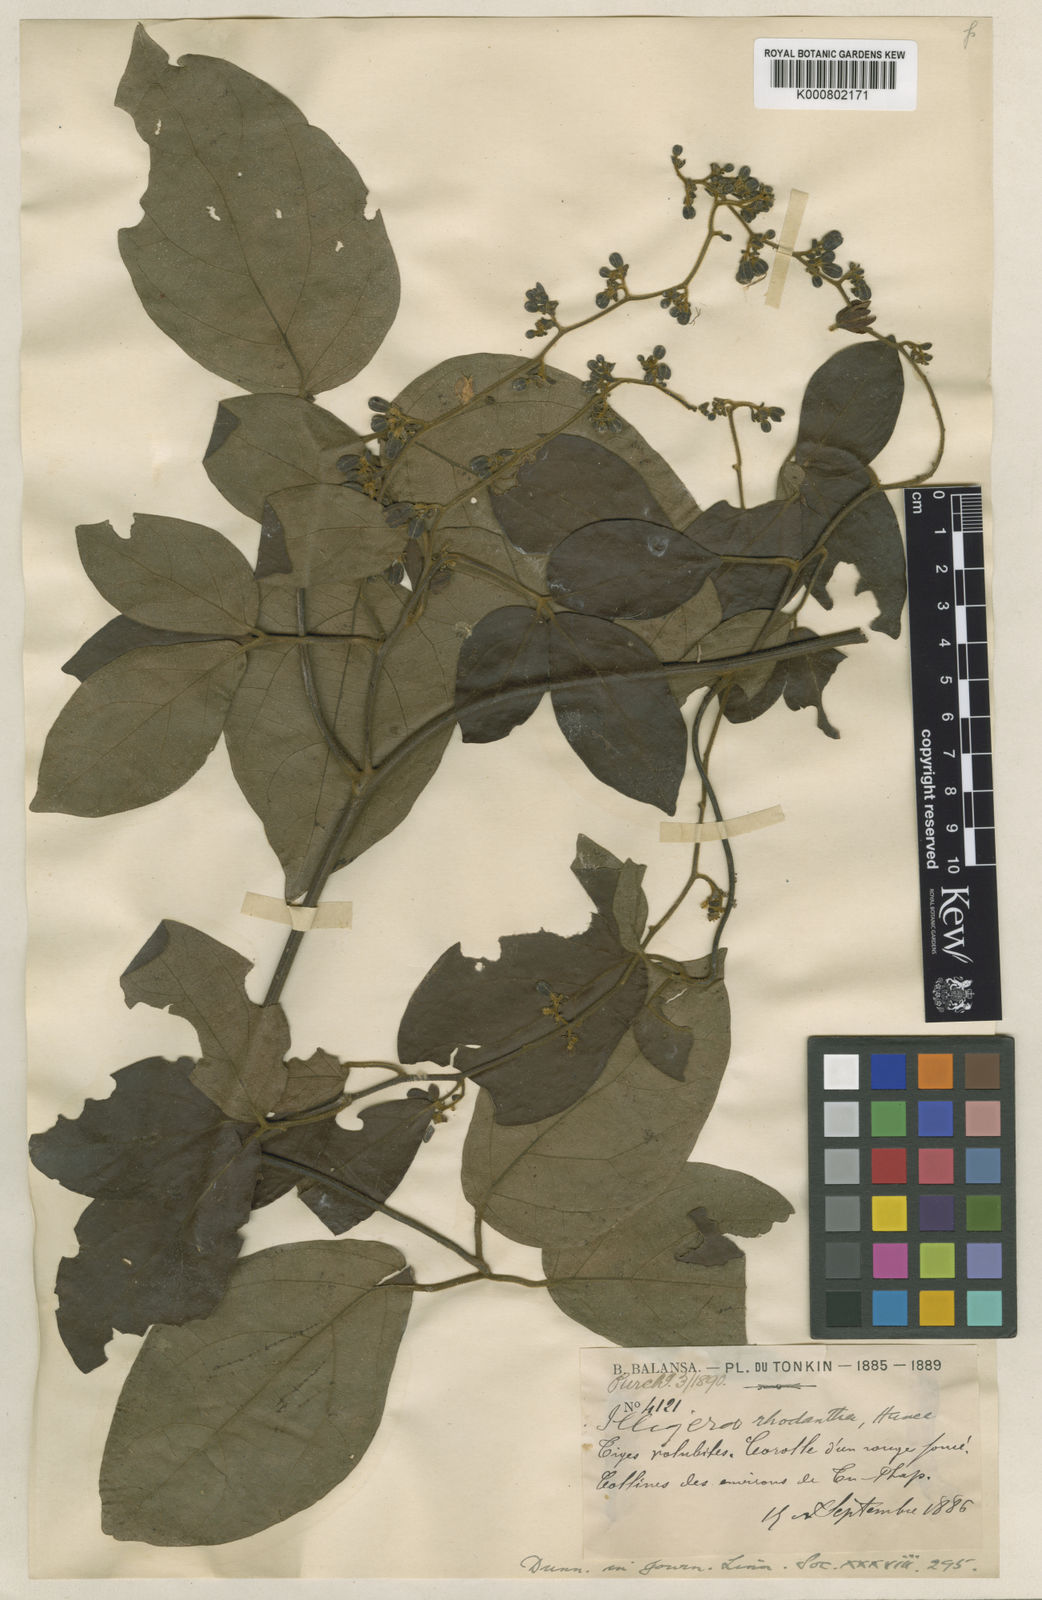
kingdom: Plantae
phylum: Tracheophyta
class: Magnoliopsida
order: Laurales
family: Hernandiaceae
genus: Illigera
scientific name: Illigera rhodantha
